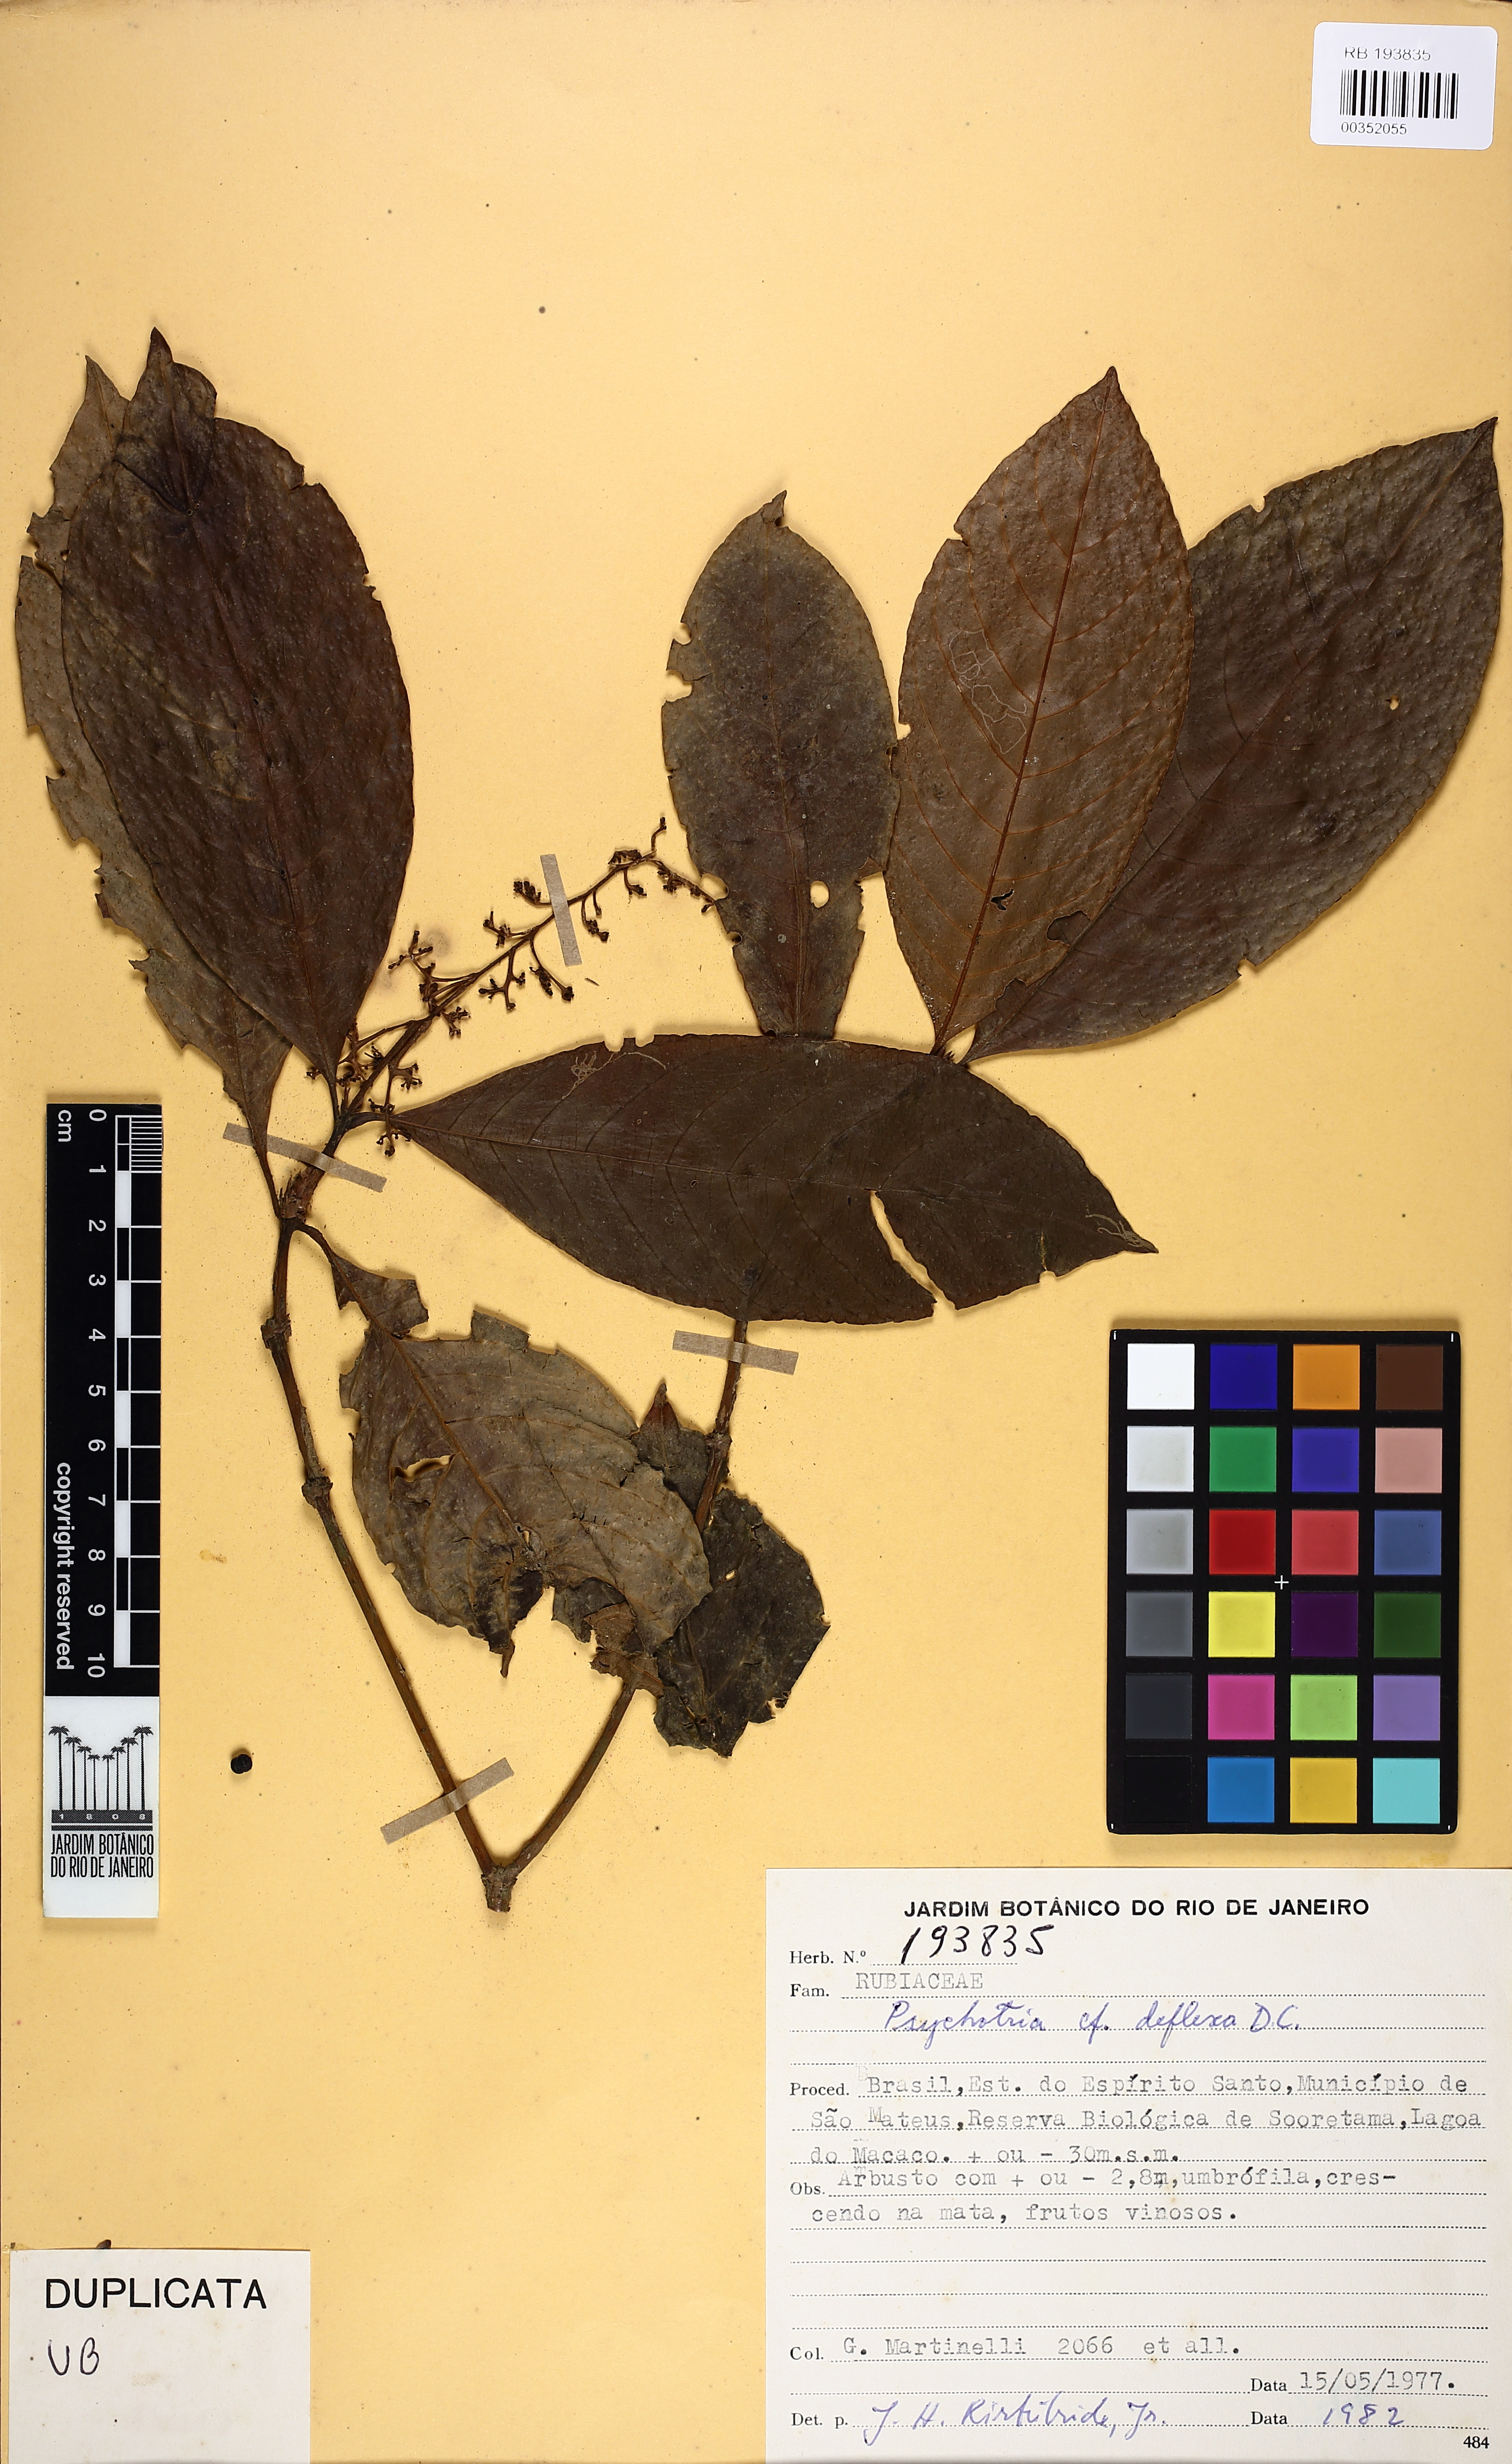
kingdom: Plantae
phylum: Tracheophyta
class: Magnoliopsida
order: Gentianales
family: Rubiaceae
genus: Palicourea
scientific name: Palicourea deflexa
